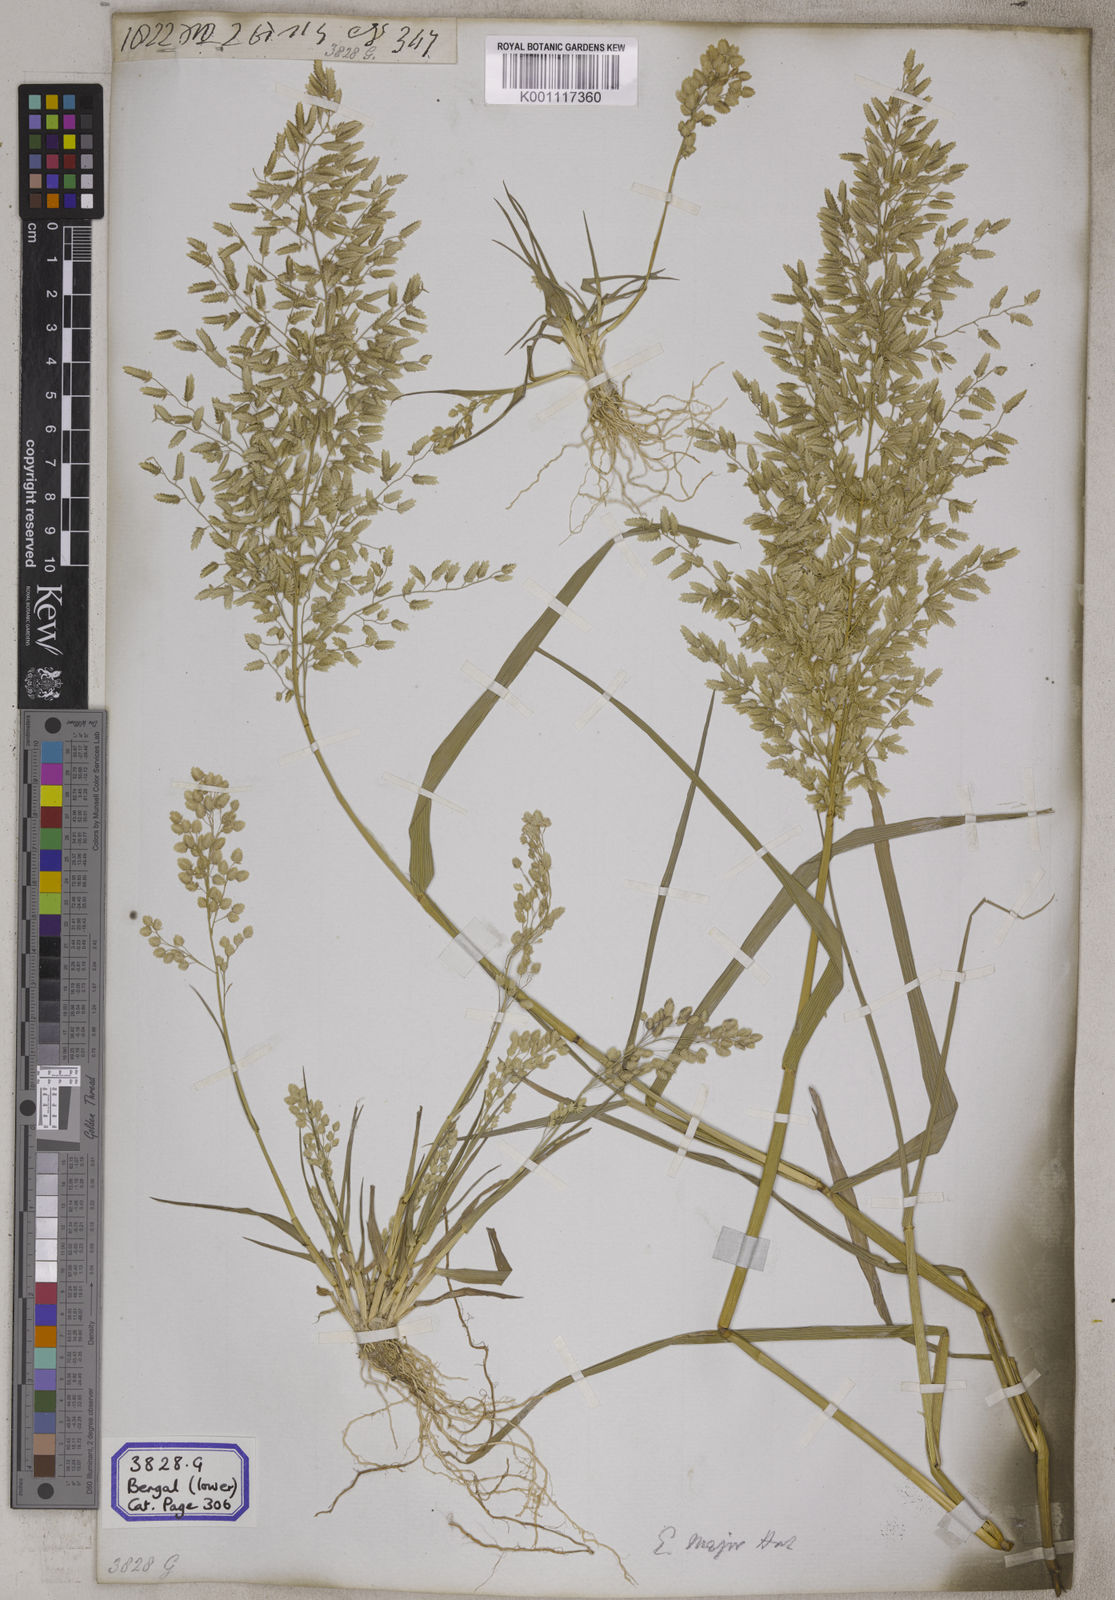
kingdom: Plantae
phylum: Tracheophyta
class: Liliopsida
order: Poales
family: Poaceae
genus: Eragrostis
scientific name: Eragrostis
